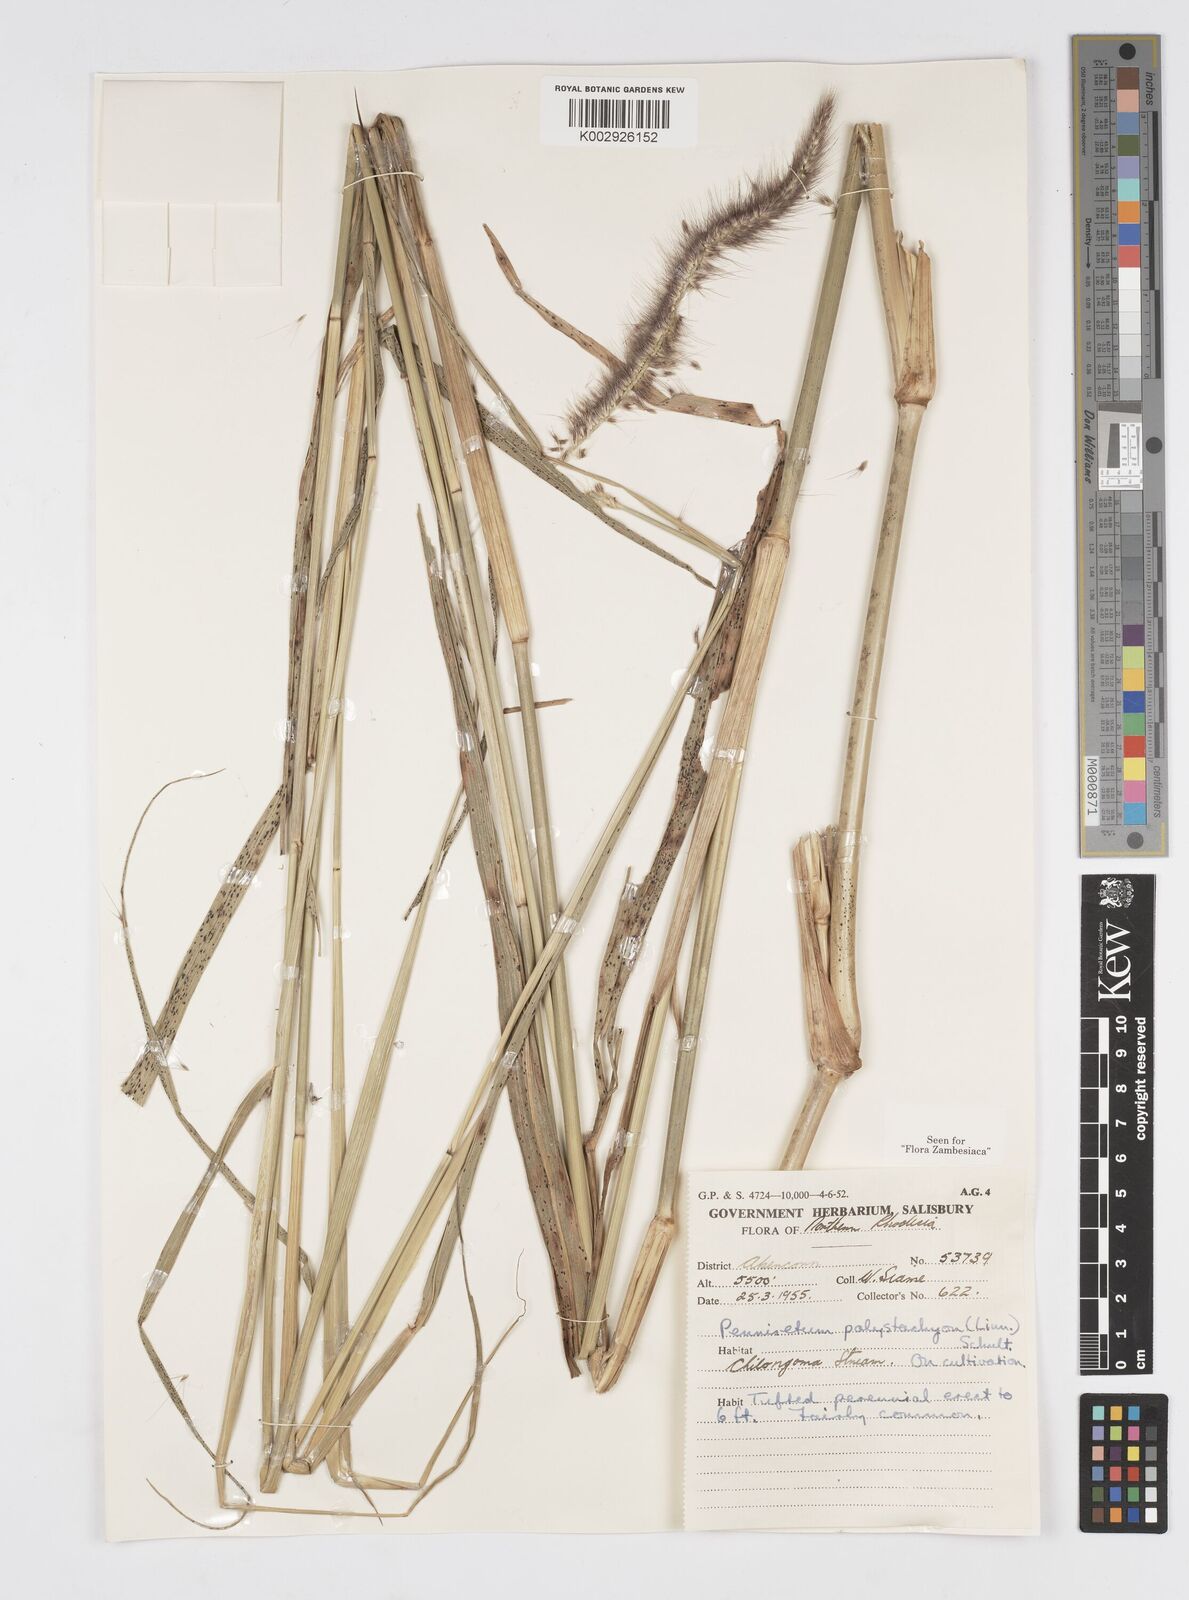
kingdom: Plantae
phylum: Tracheophyta
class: Liliopsida
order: Poales
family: Poaceae
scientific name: Poaceae
